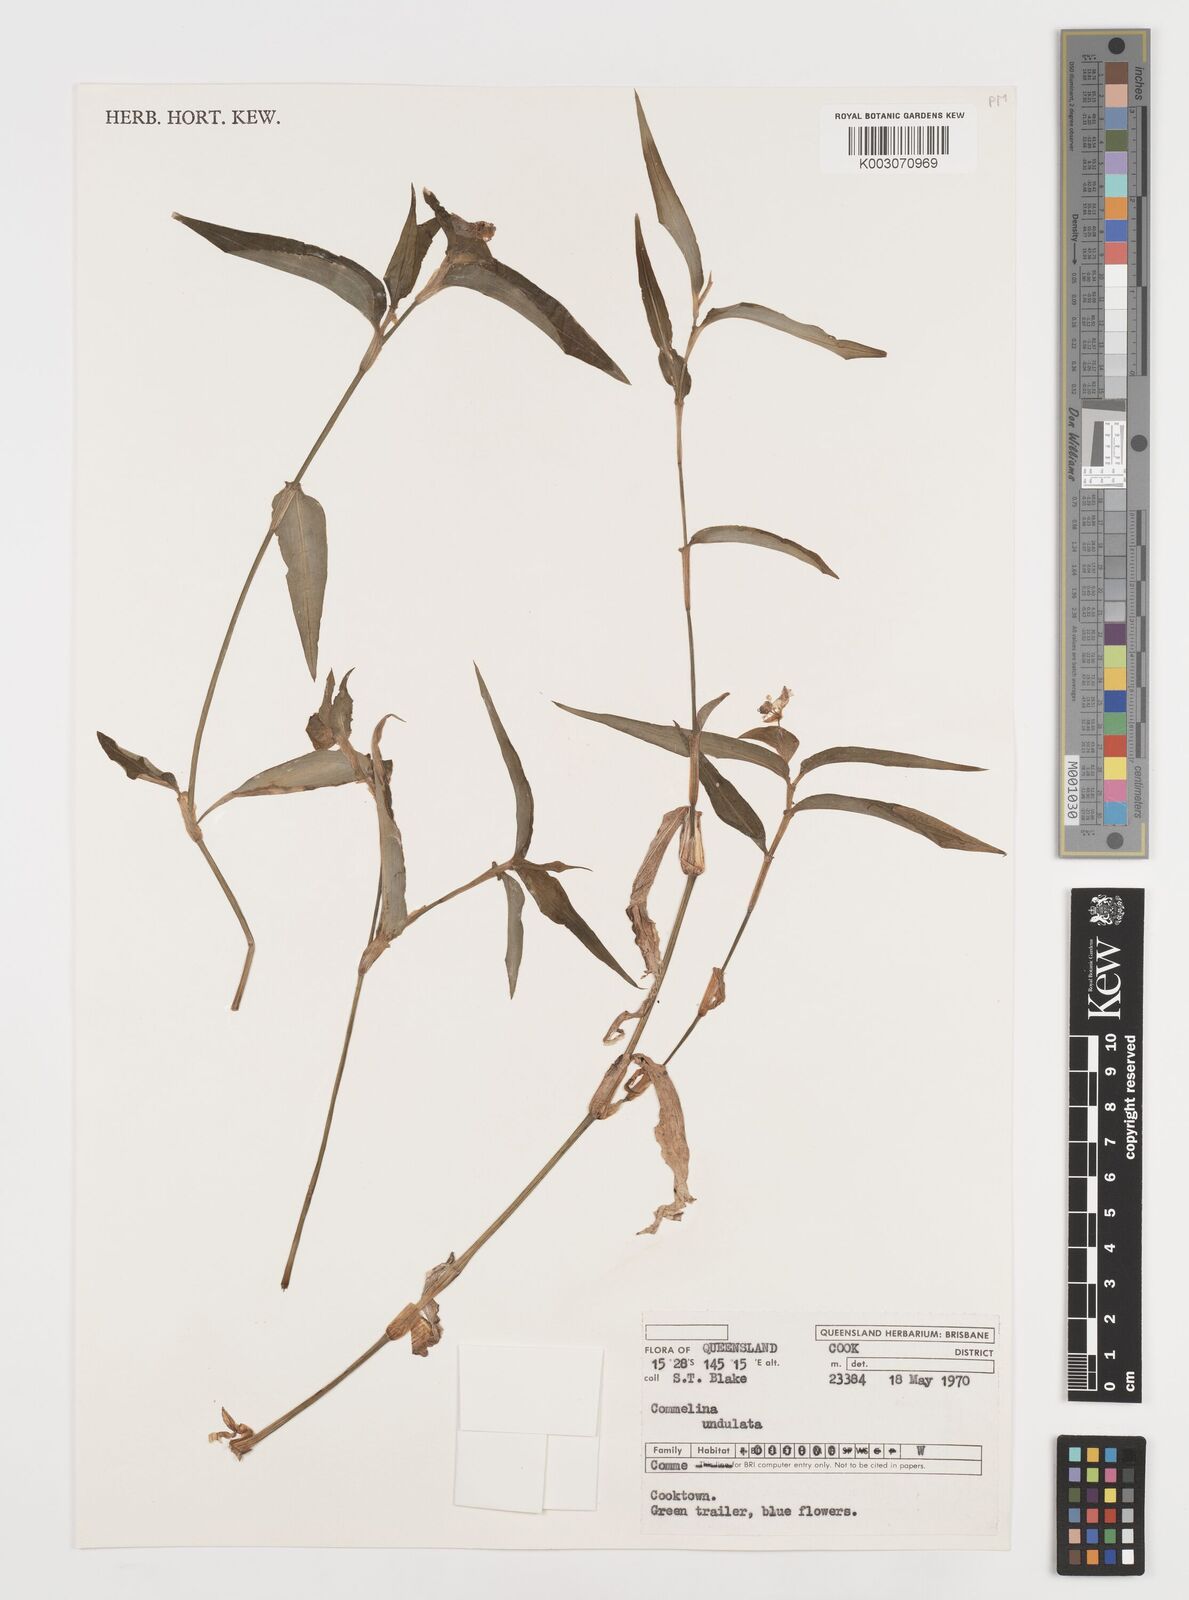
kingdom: Plantae
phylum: Tracheophyta
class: Liliopsida
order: Commelinales
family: Commelinaceae
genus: Commelina
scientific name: Commelina undulata
